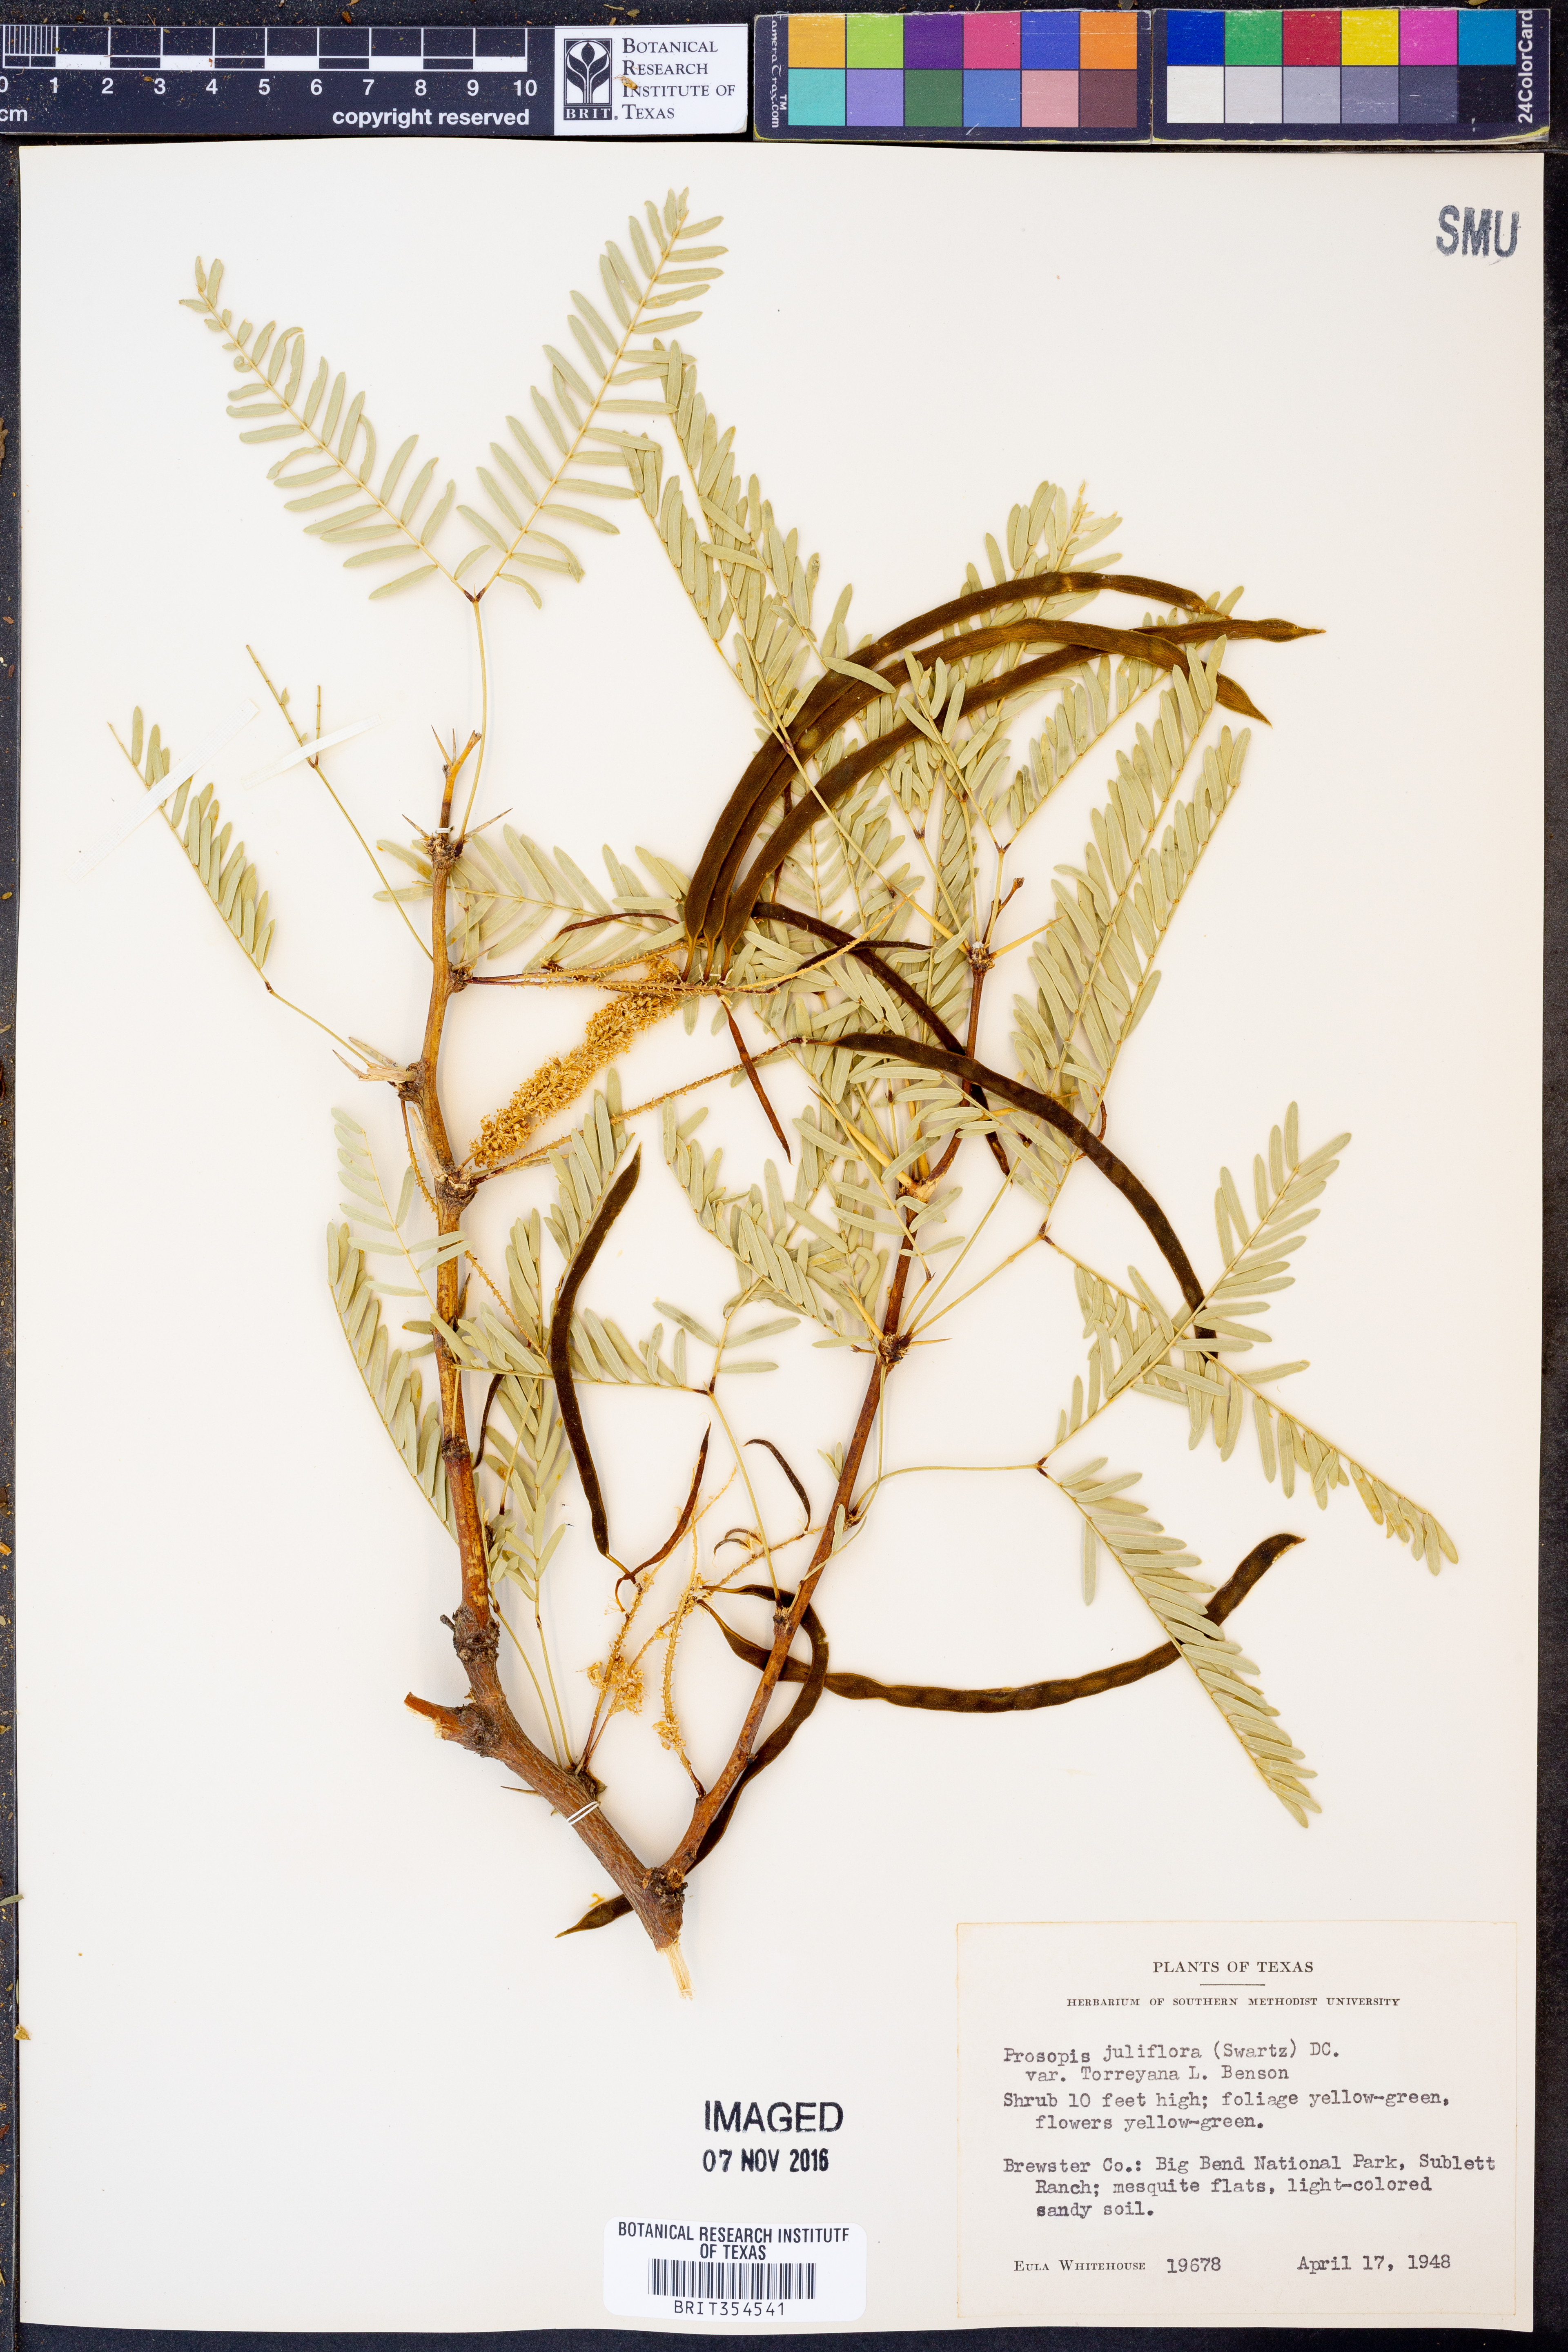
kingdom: Plantae
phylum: Tracheophyta
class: Magnoliopsida
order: Fabales
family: Fabaceae
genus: Prosopis
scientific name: Prosopis glandulosa
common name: Honey mesquite
